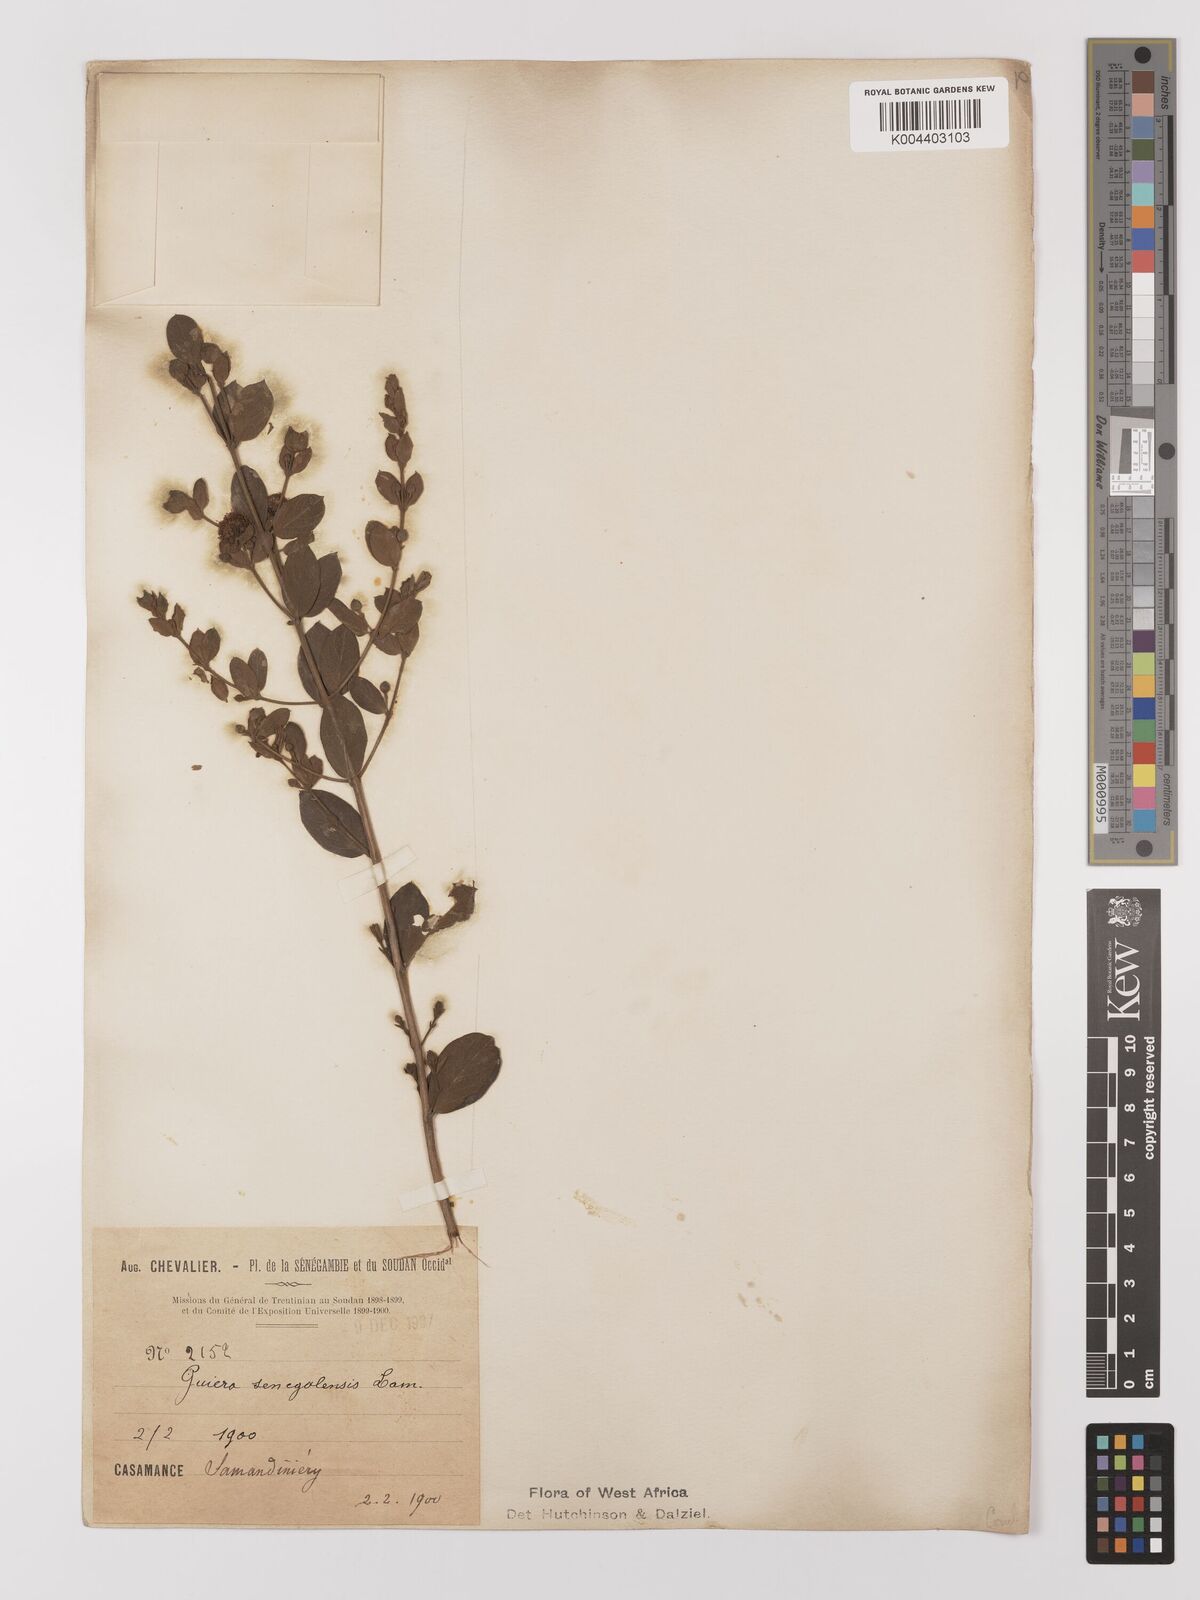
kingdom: Plantae
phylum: Tracheophyta
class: Magnoliopsida
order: Myrtales
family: Combretaceae
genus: Guiera
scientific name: Guiera senegalensis
